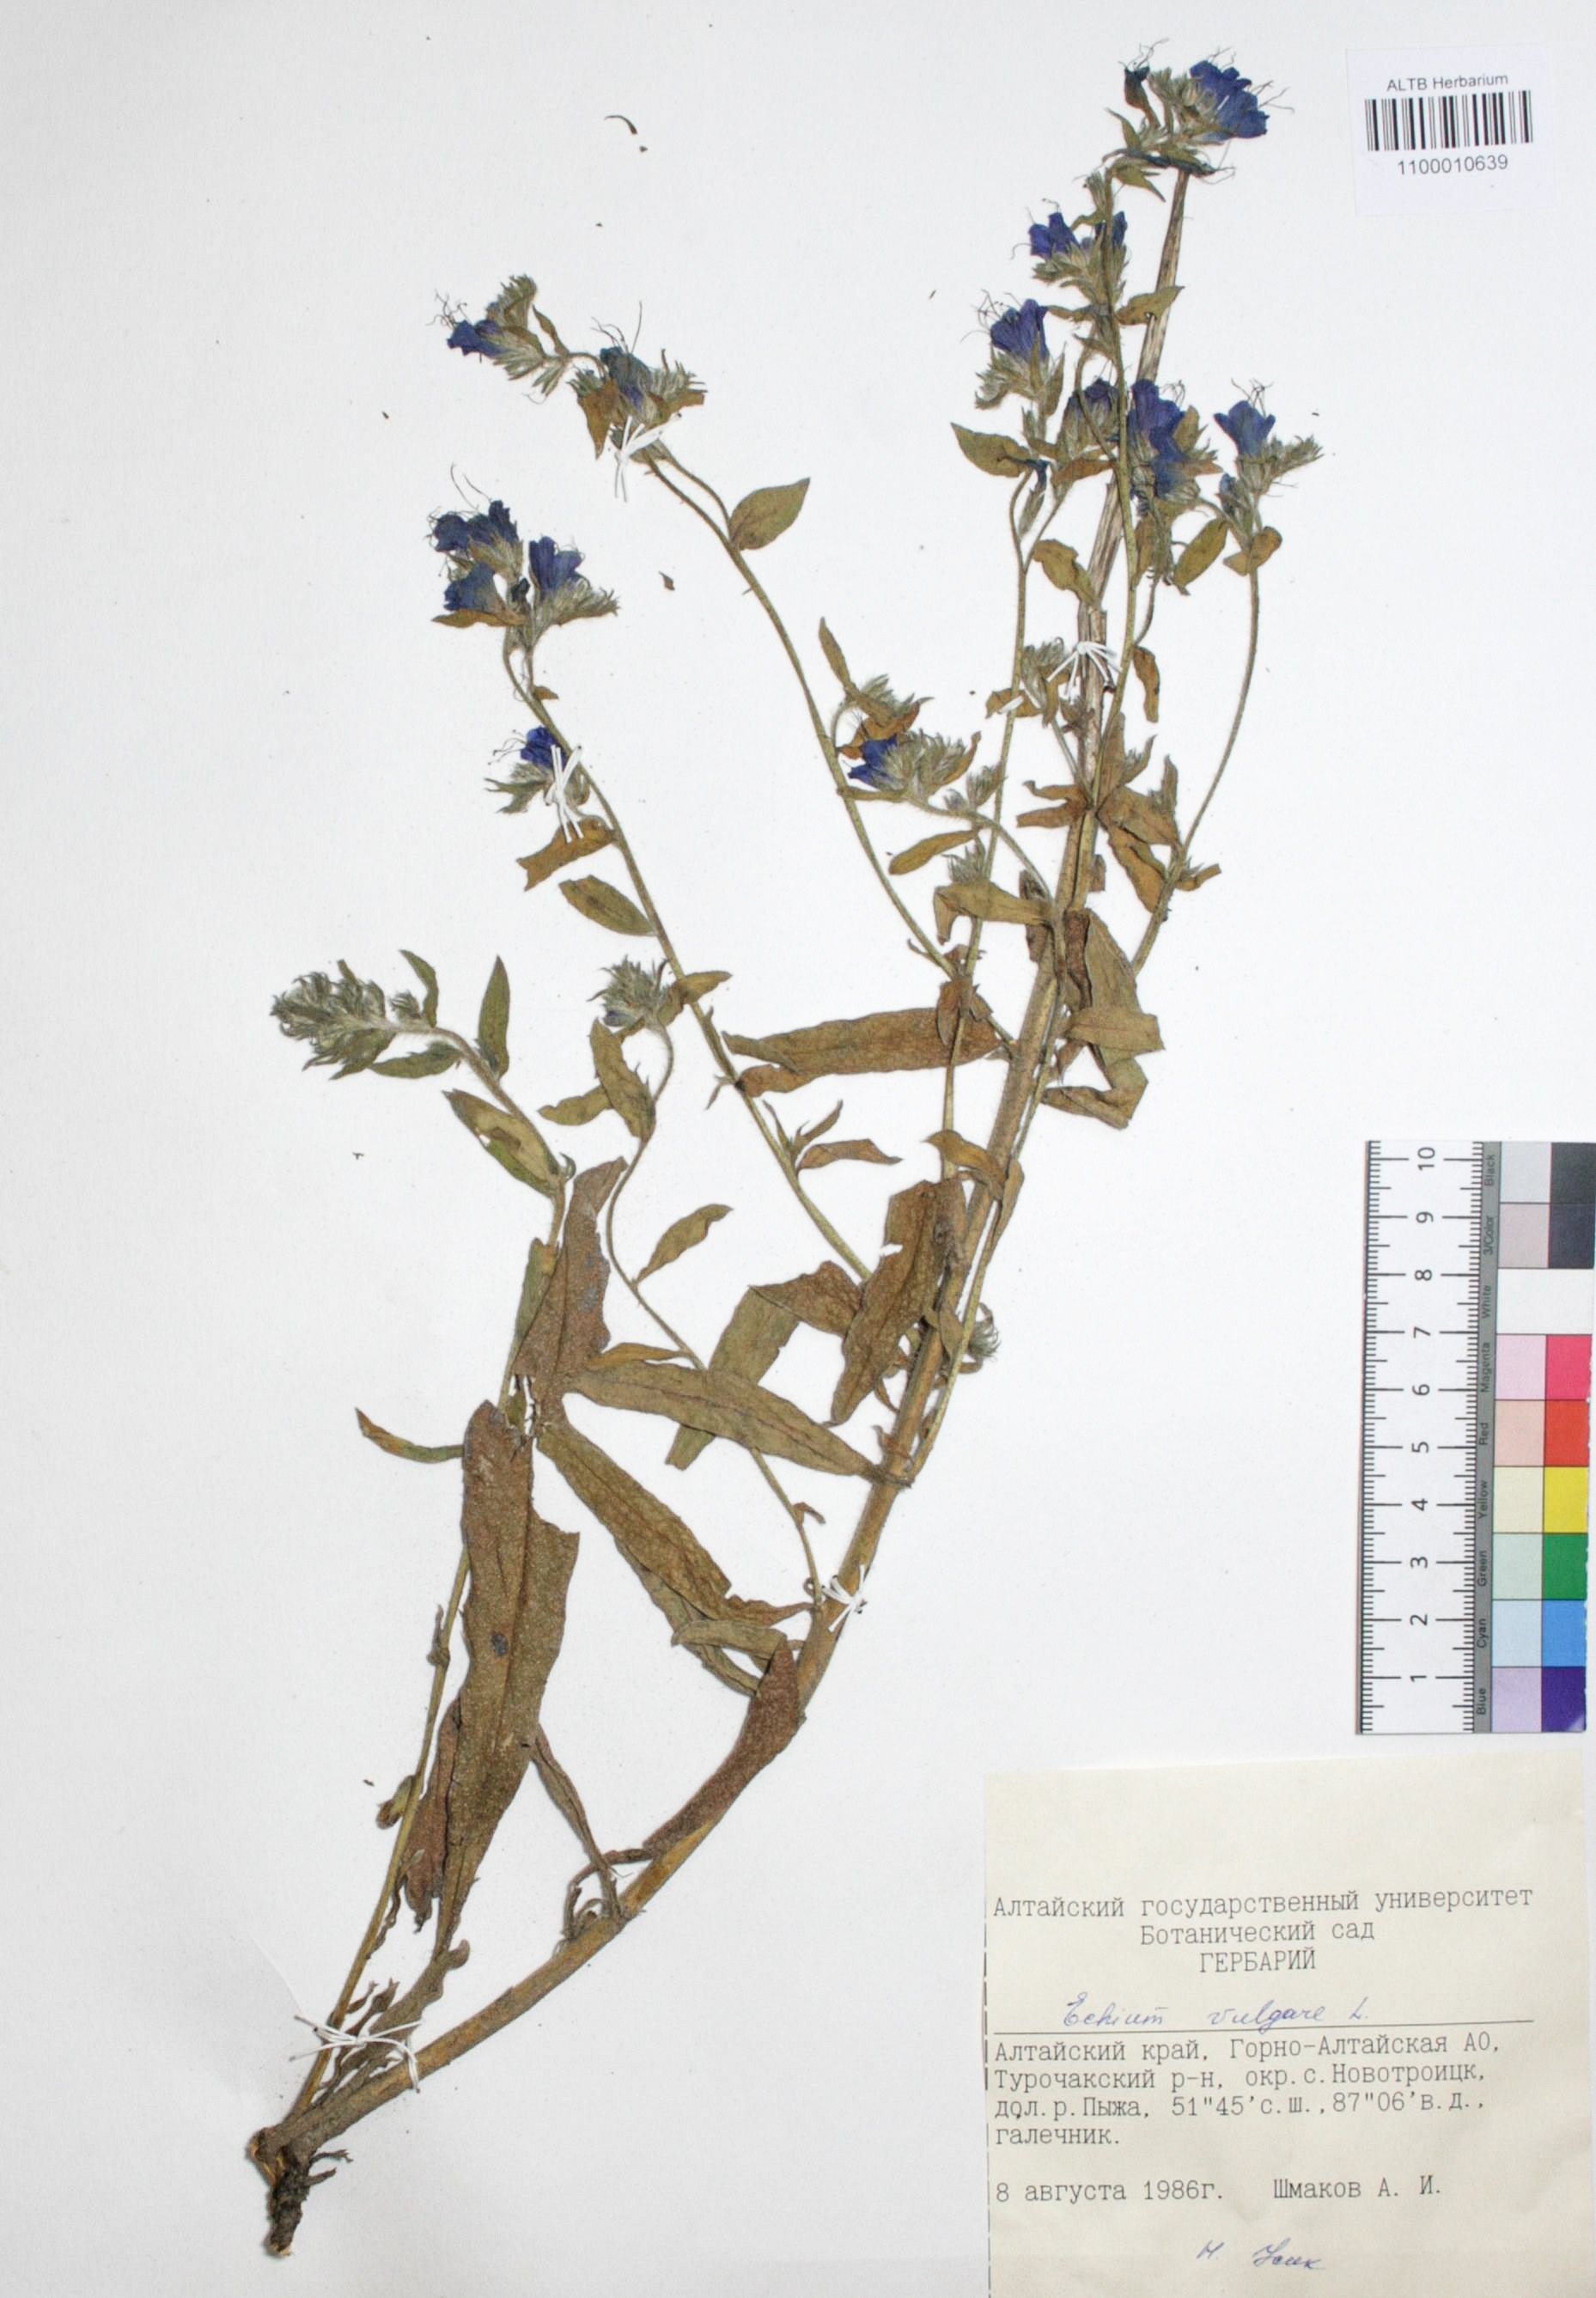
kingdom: Plantae
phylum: Tracheophyta
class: Magnoliopsida
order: Boraginales
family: Boraginaceae
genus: Echium
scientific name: Echium vulgare
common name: Common viper's bugloss
